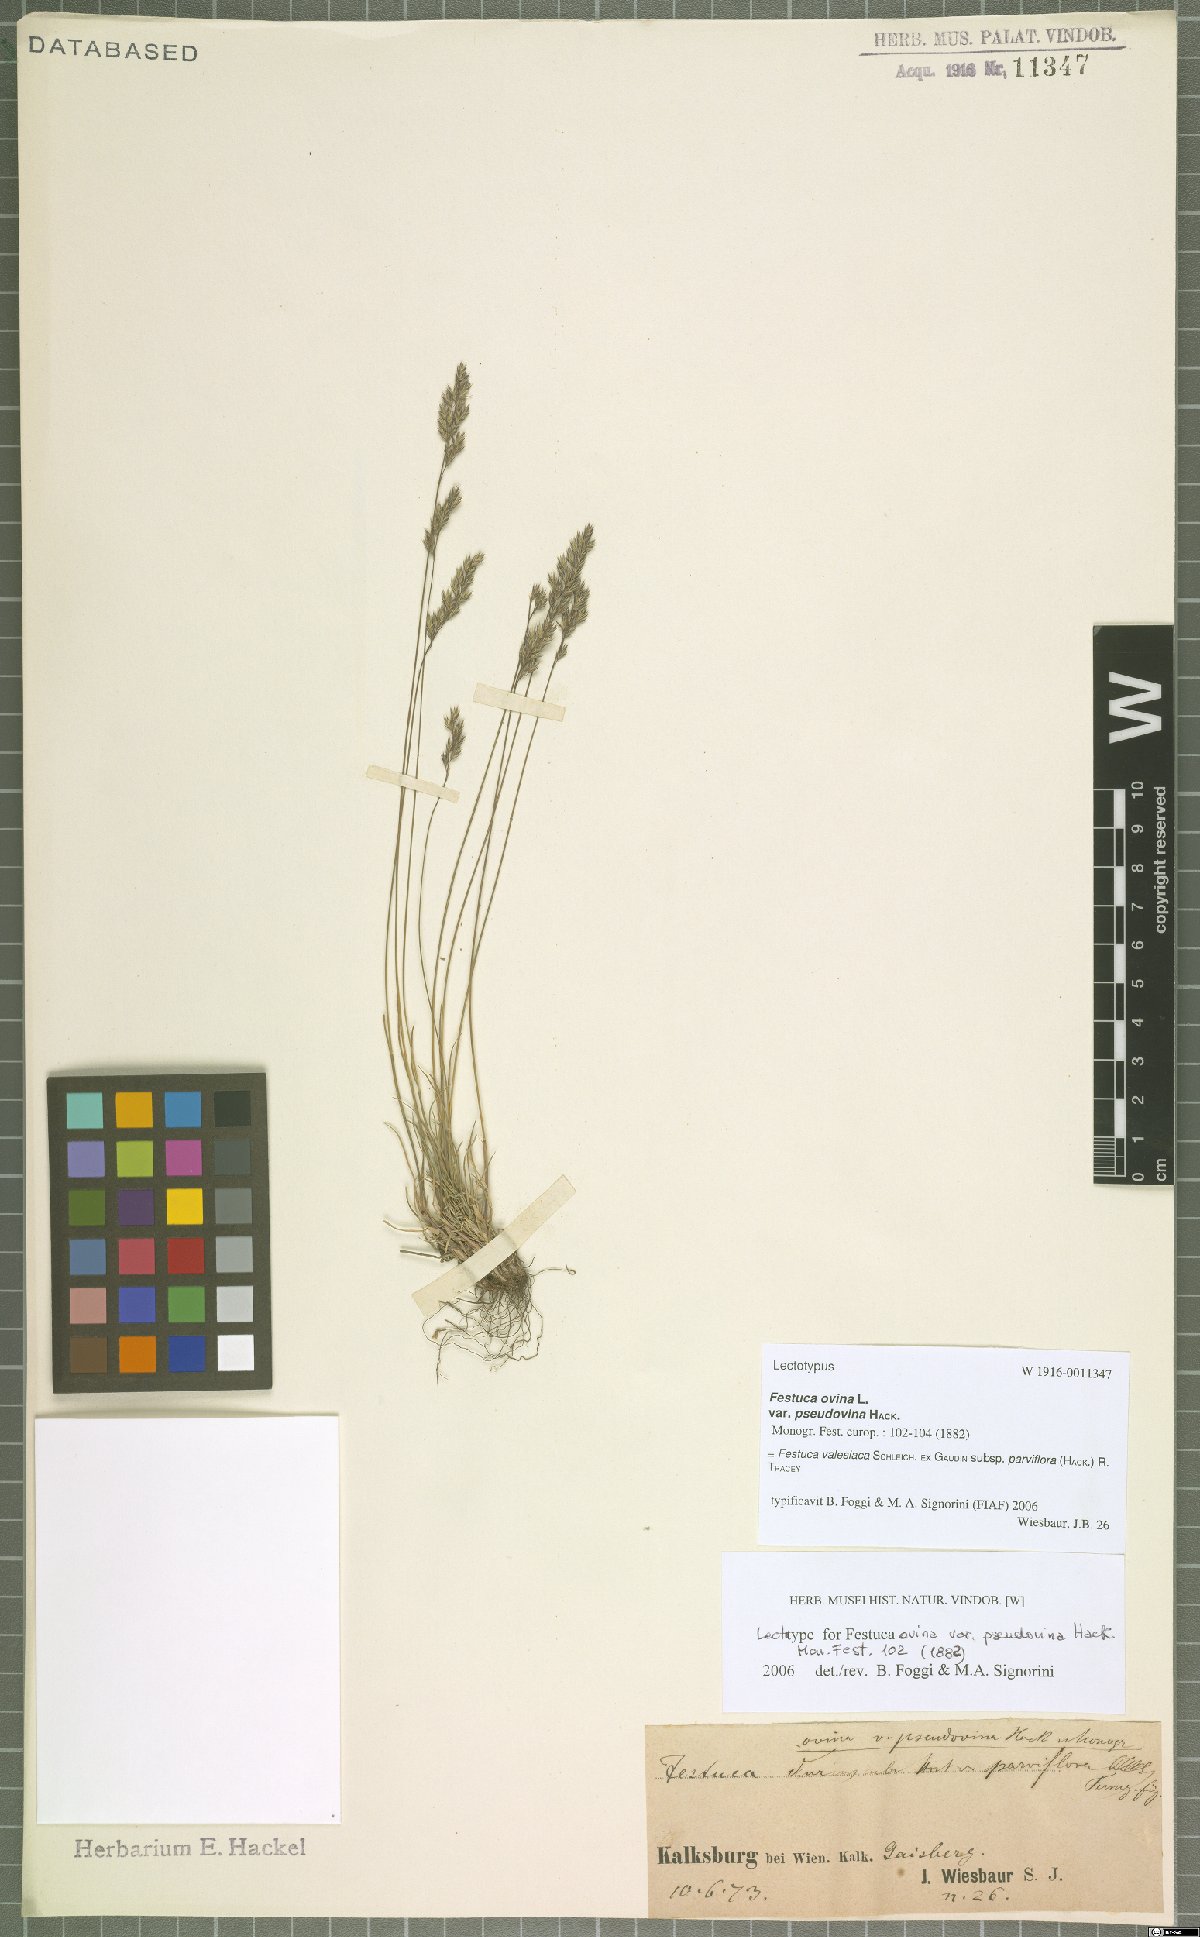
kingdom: Plantae
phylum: Tracheophyta
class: Liliopsida
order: Poales
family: Poaceae
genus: Festuca
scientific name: Festuca pulchra
